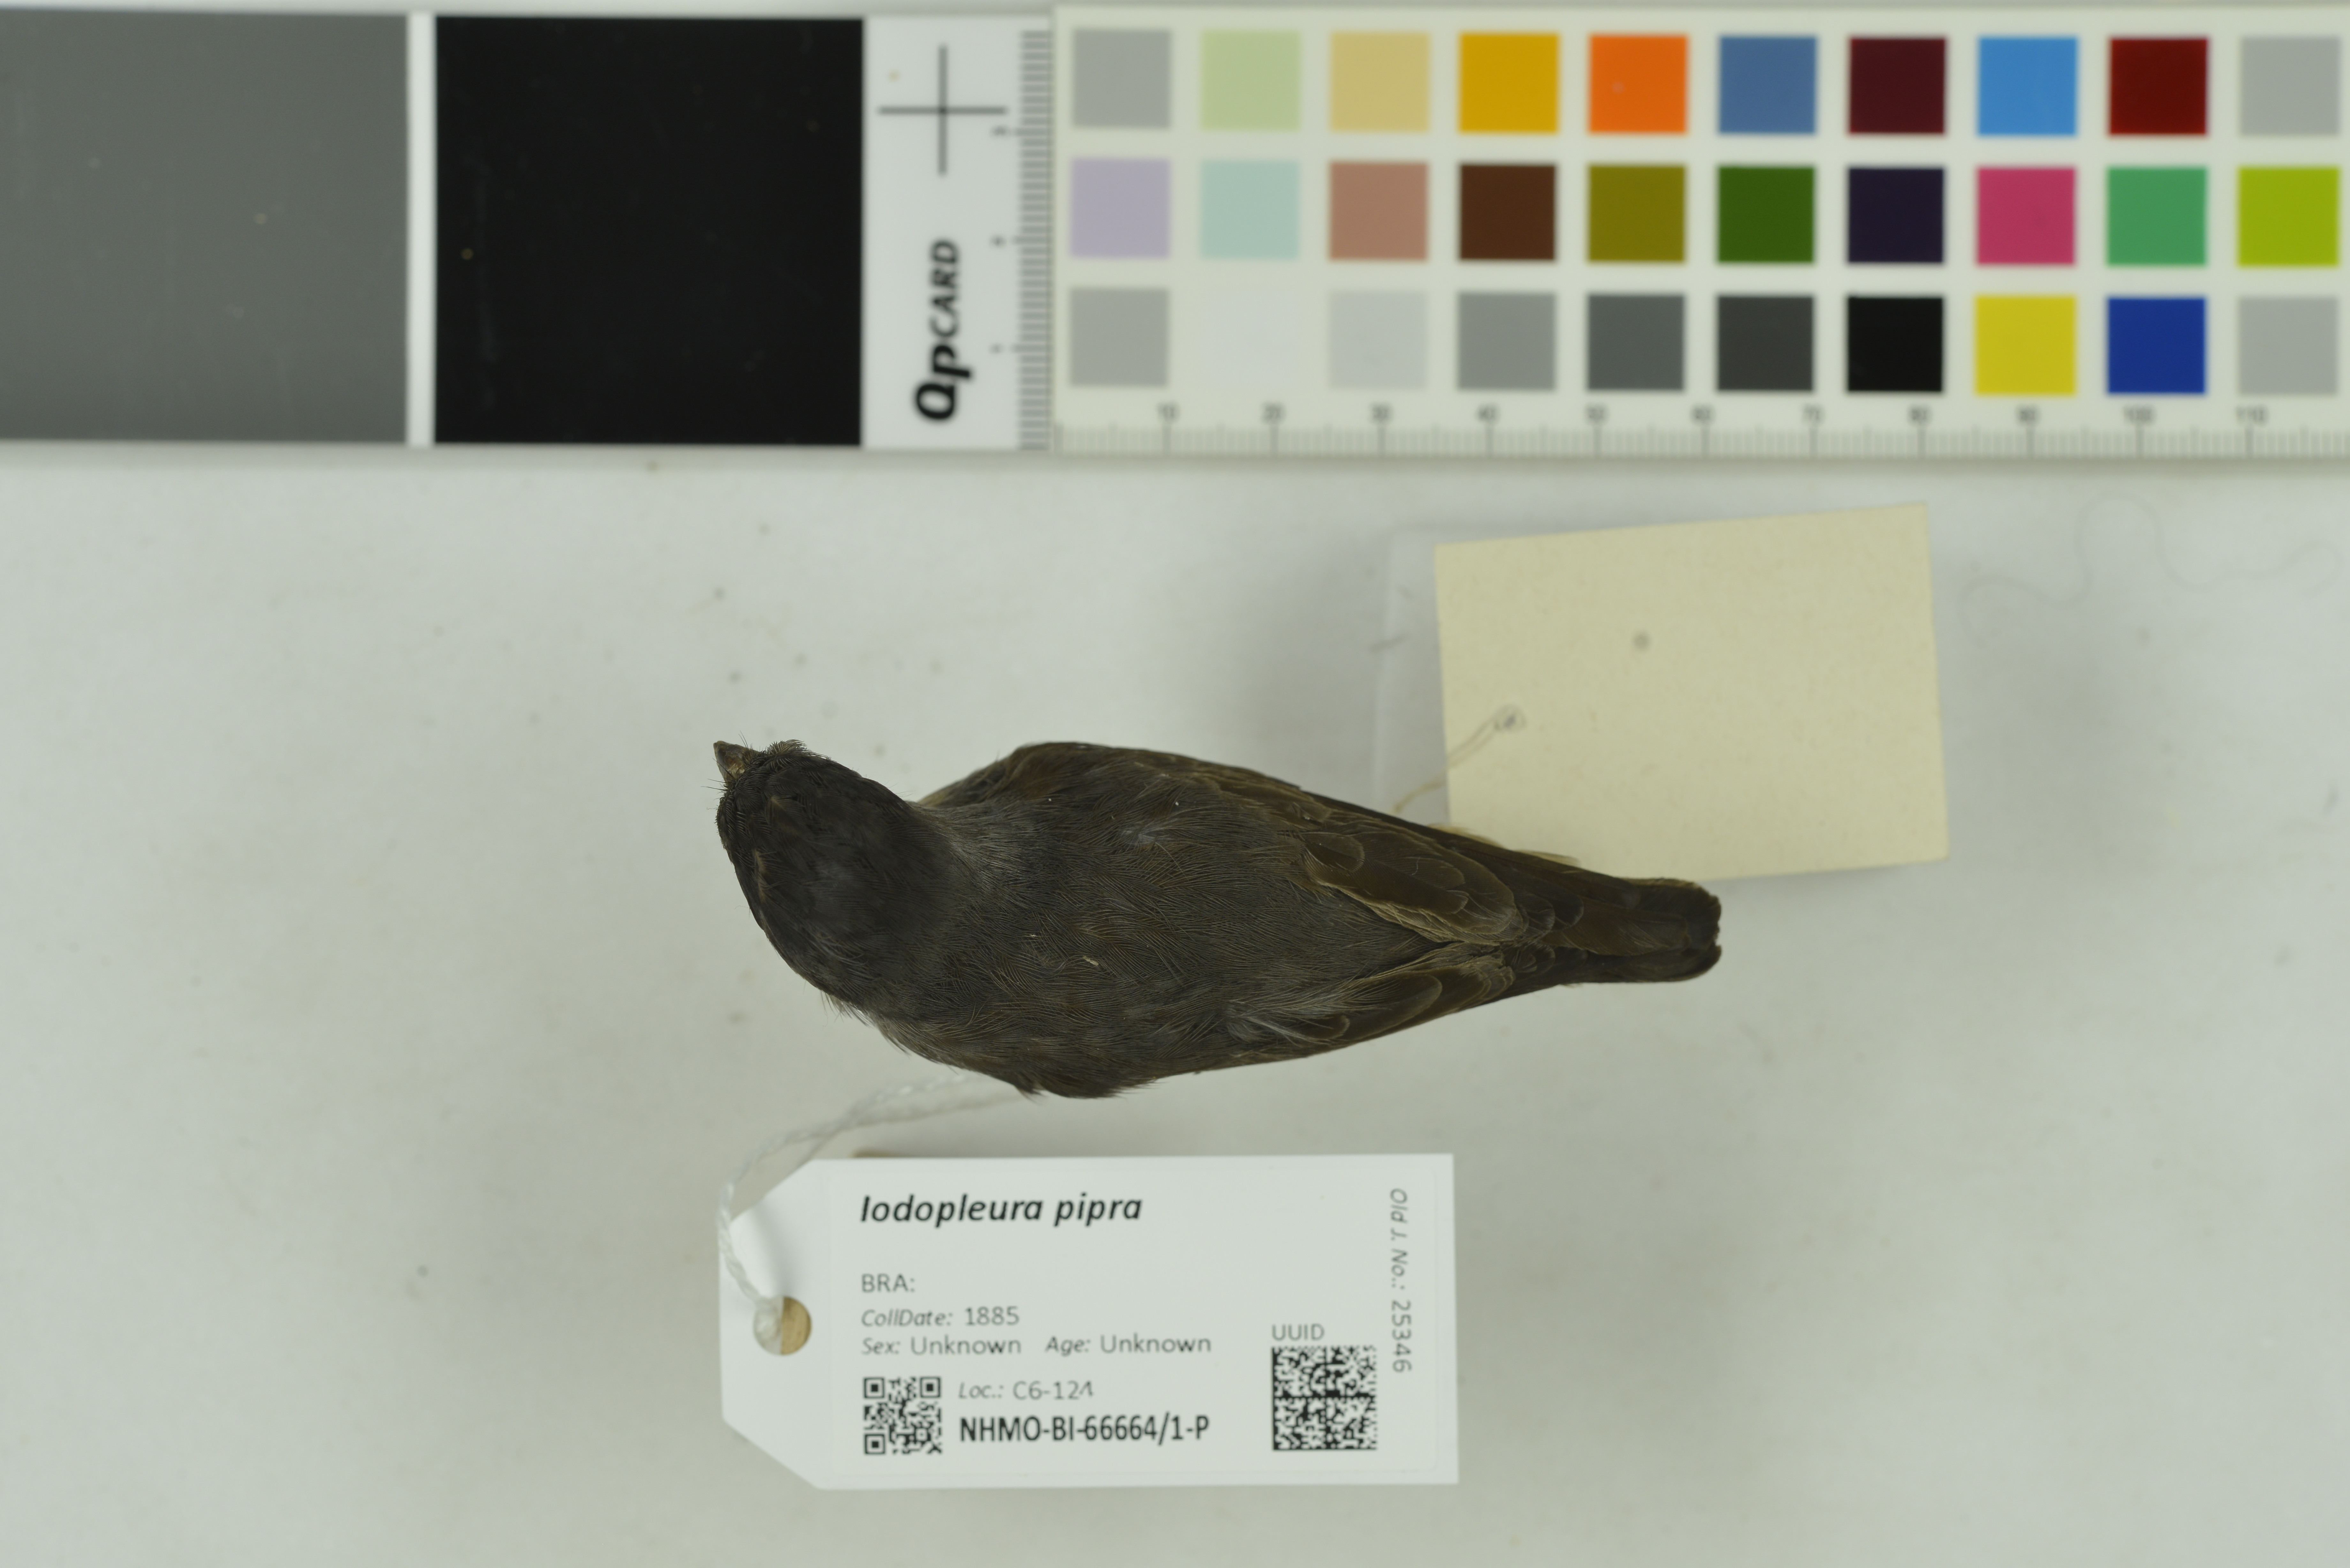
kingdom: Animalia
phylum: Chordata
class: Aves
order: Passeriformes
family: Cotingidae
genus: Iodopleura
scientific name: Iodopleura pipra
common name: Buff-throated purpletuft
